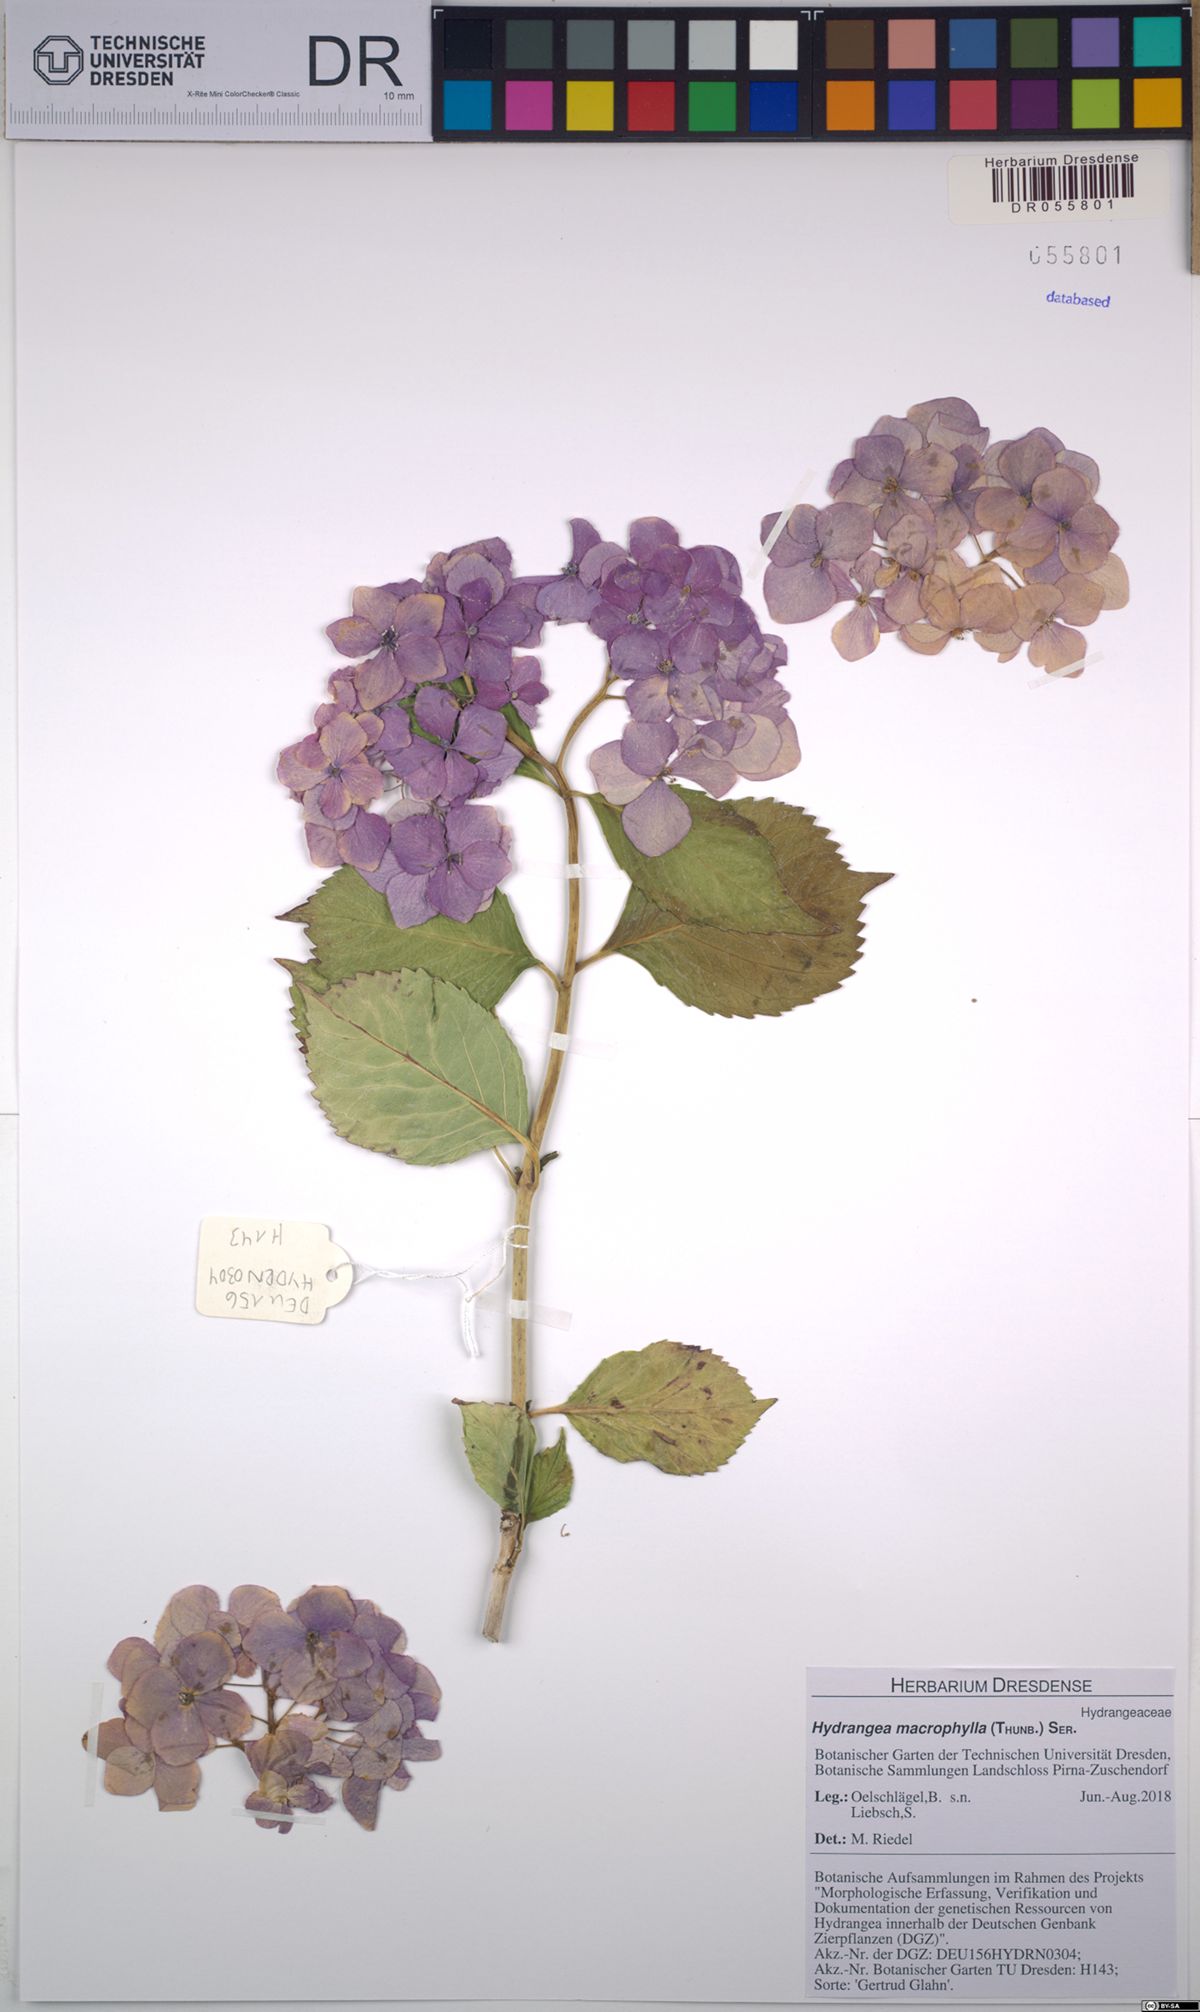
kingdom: Plantae
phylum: Tracheophyta
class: Magnoliopsida
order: Cornales
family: Hydrangeaceae
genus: Hydrangea
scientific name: Hydrangea macrophylla
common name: Hydrangea
